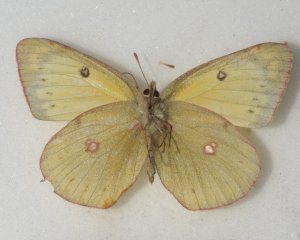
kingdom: Animalia
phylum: Arthropoda
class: Insecta
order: Lepidoptera
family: Pieridae
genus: Colias
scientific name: Colias philodice
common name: Clouded Sulphur
